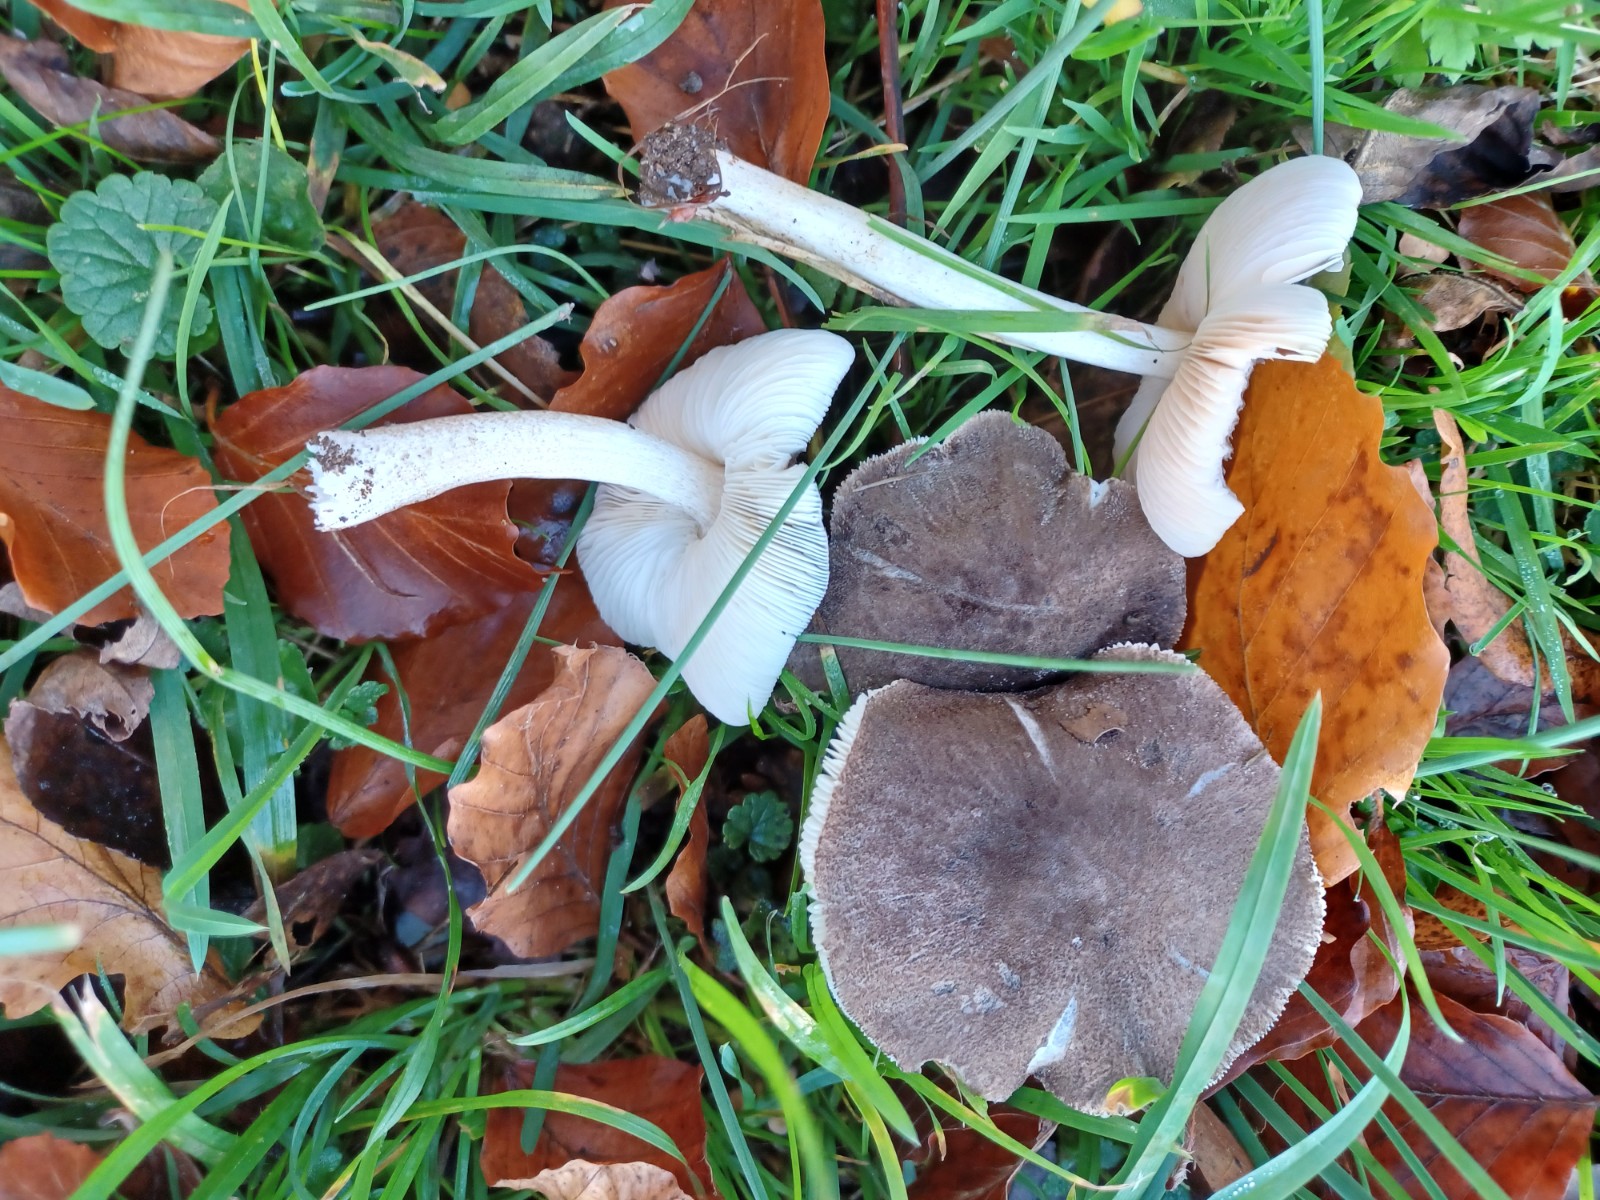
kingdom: Fungi
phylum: Basidiomycota
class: Agaricomycetes
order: Agaricales
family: Pluteaceae
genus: Pluteus
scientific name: Pluteus
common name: gråfibret skærmhat
